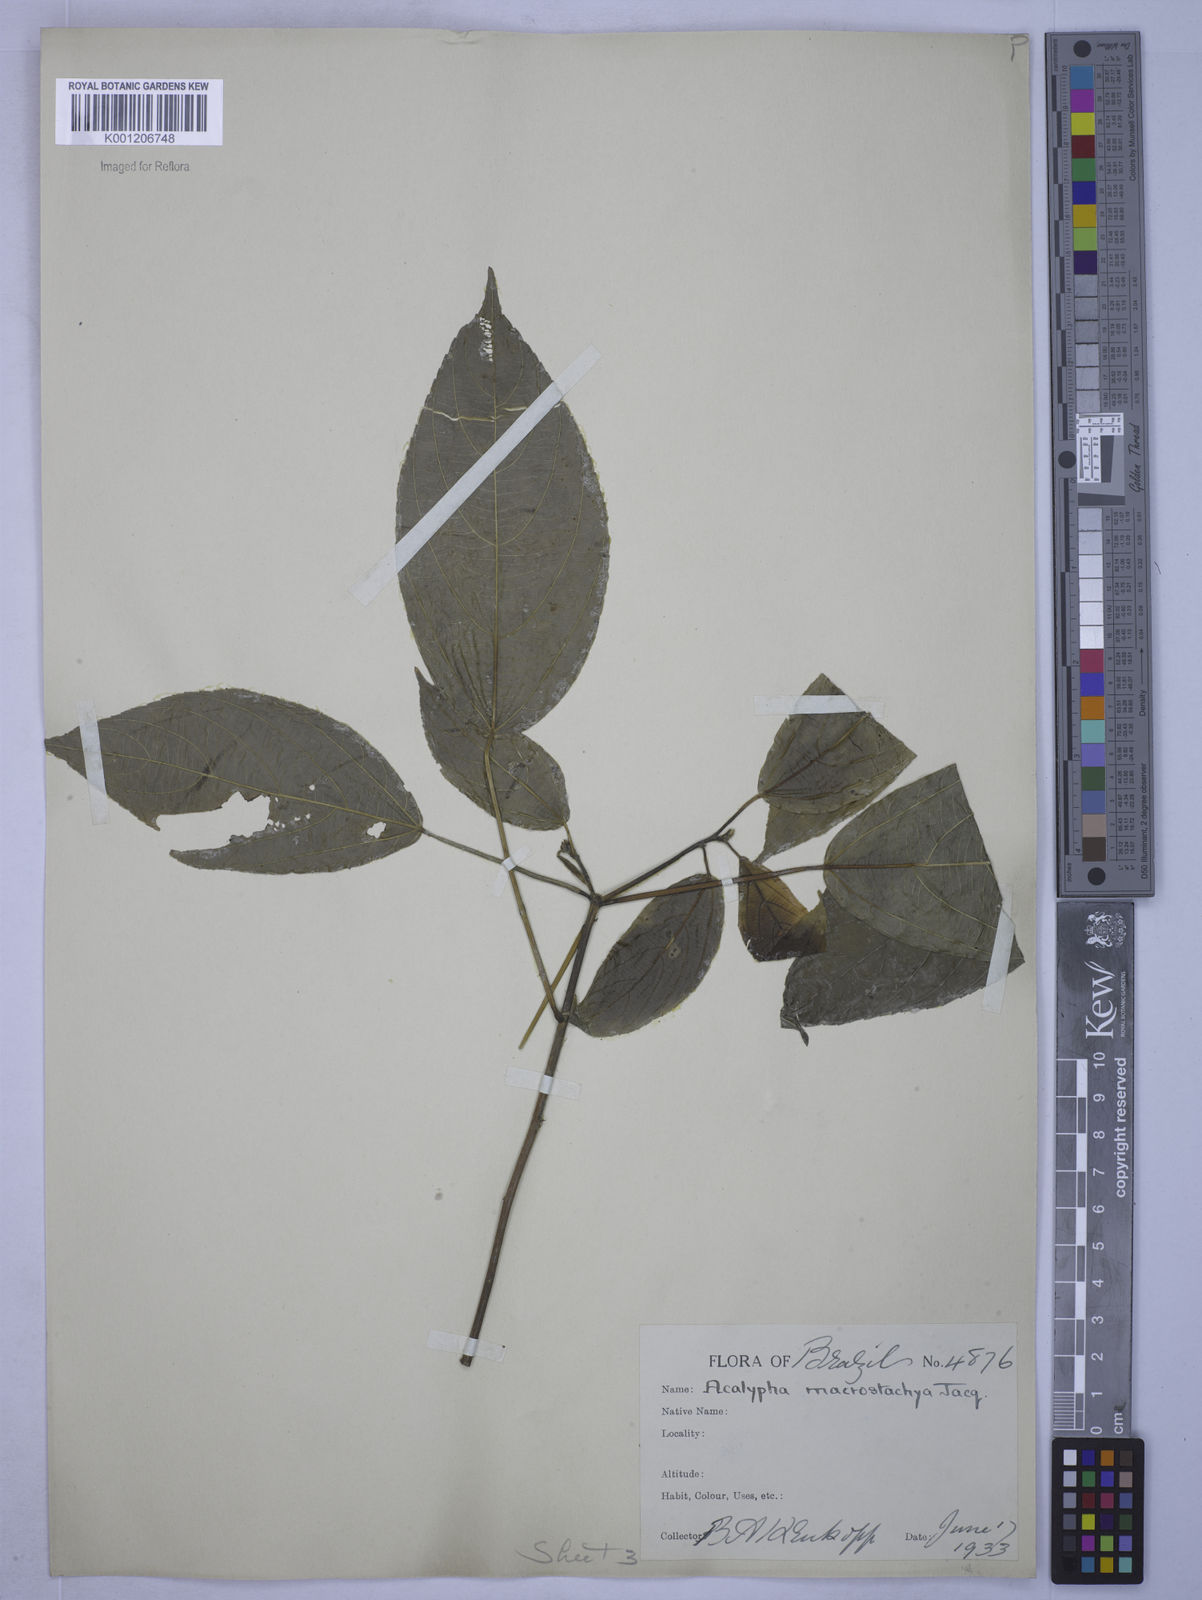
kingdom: Plantae
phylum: Tracheophyta
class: Magnoliopsida
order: Malpighiales
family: Euphorbiaceae
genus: Acalypha
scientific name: Acalypha macrostachya
